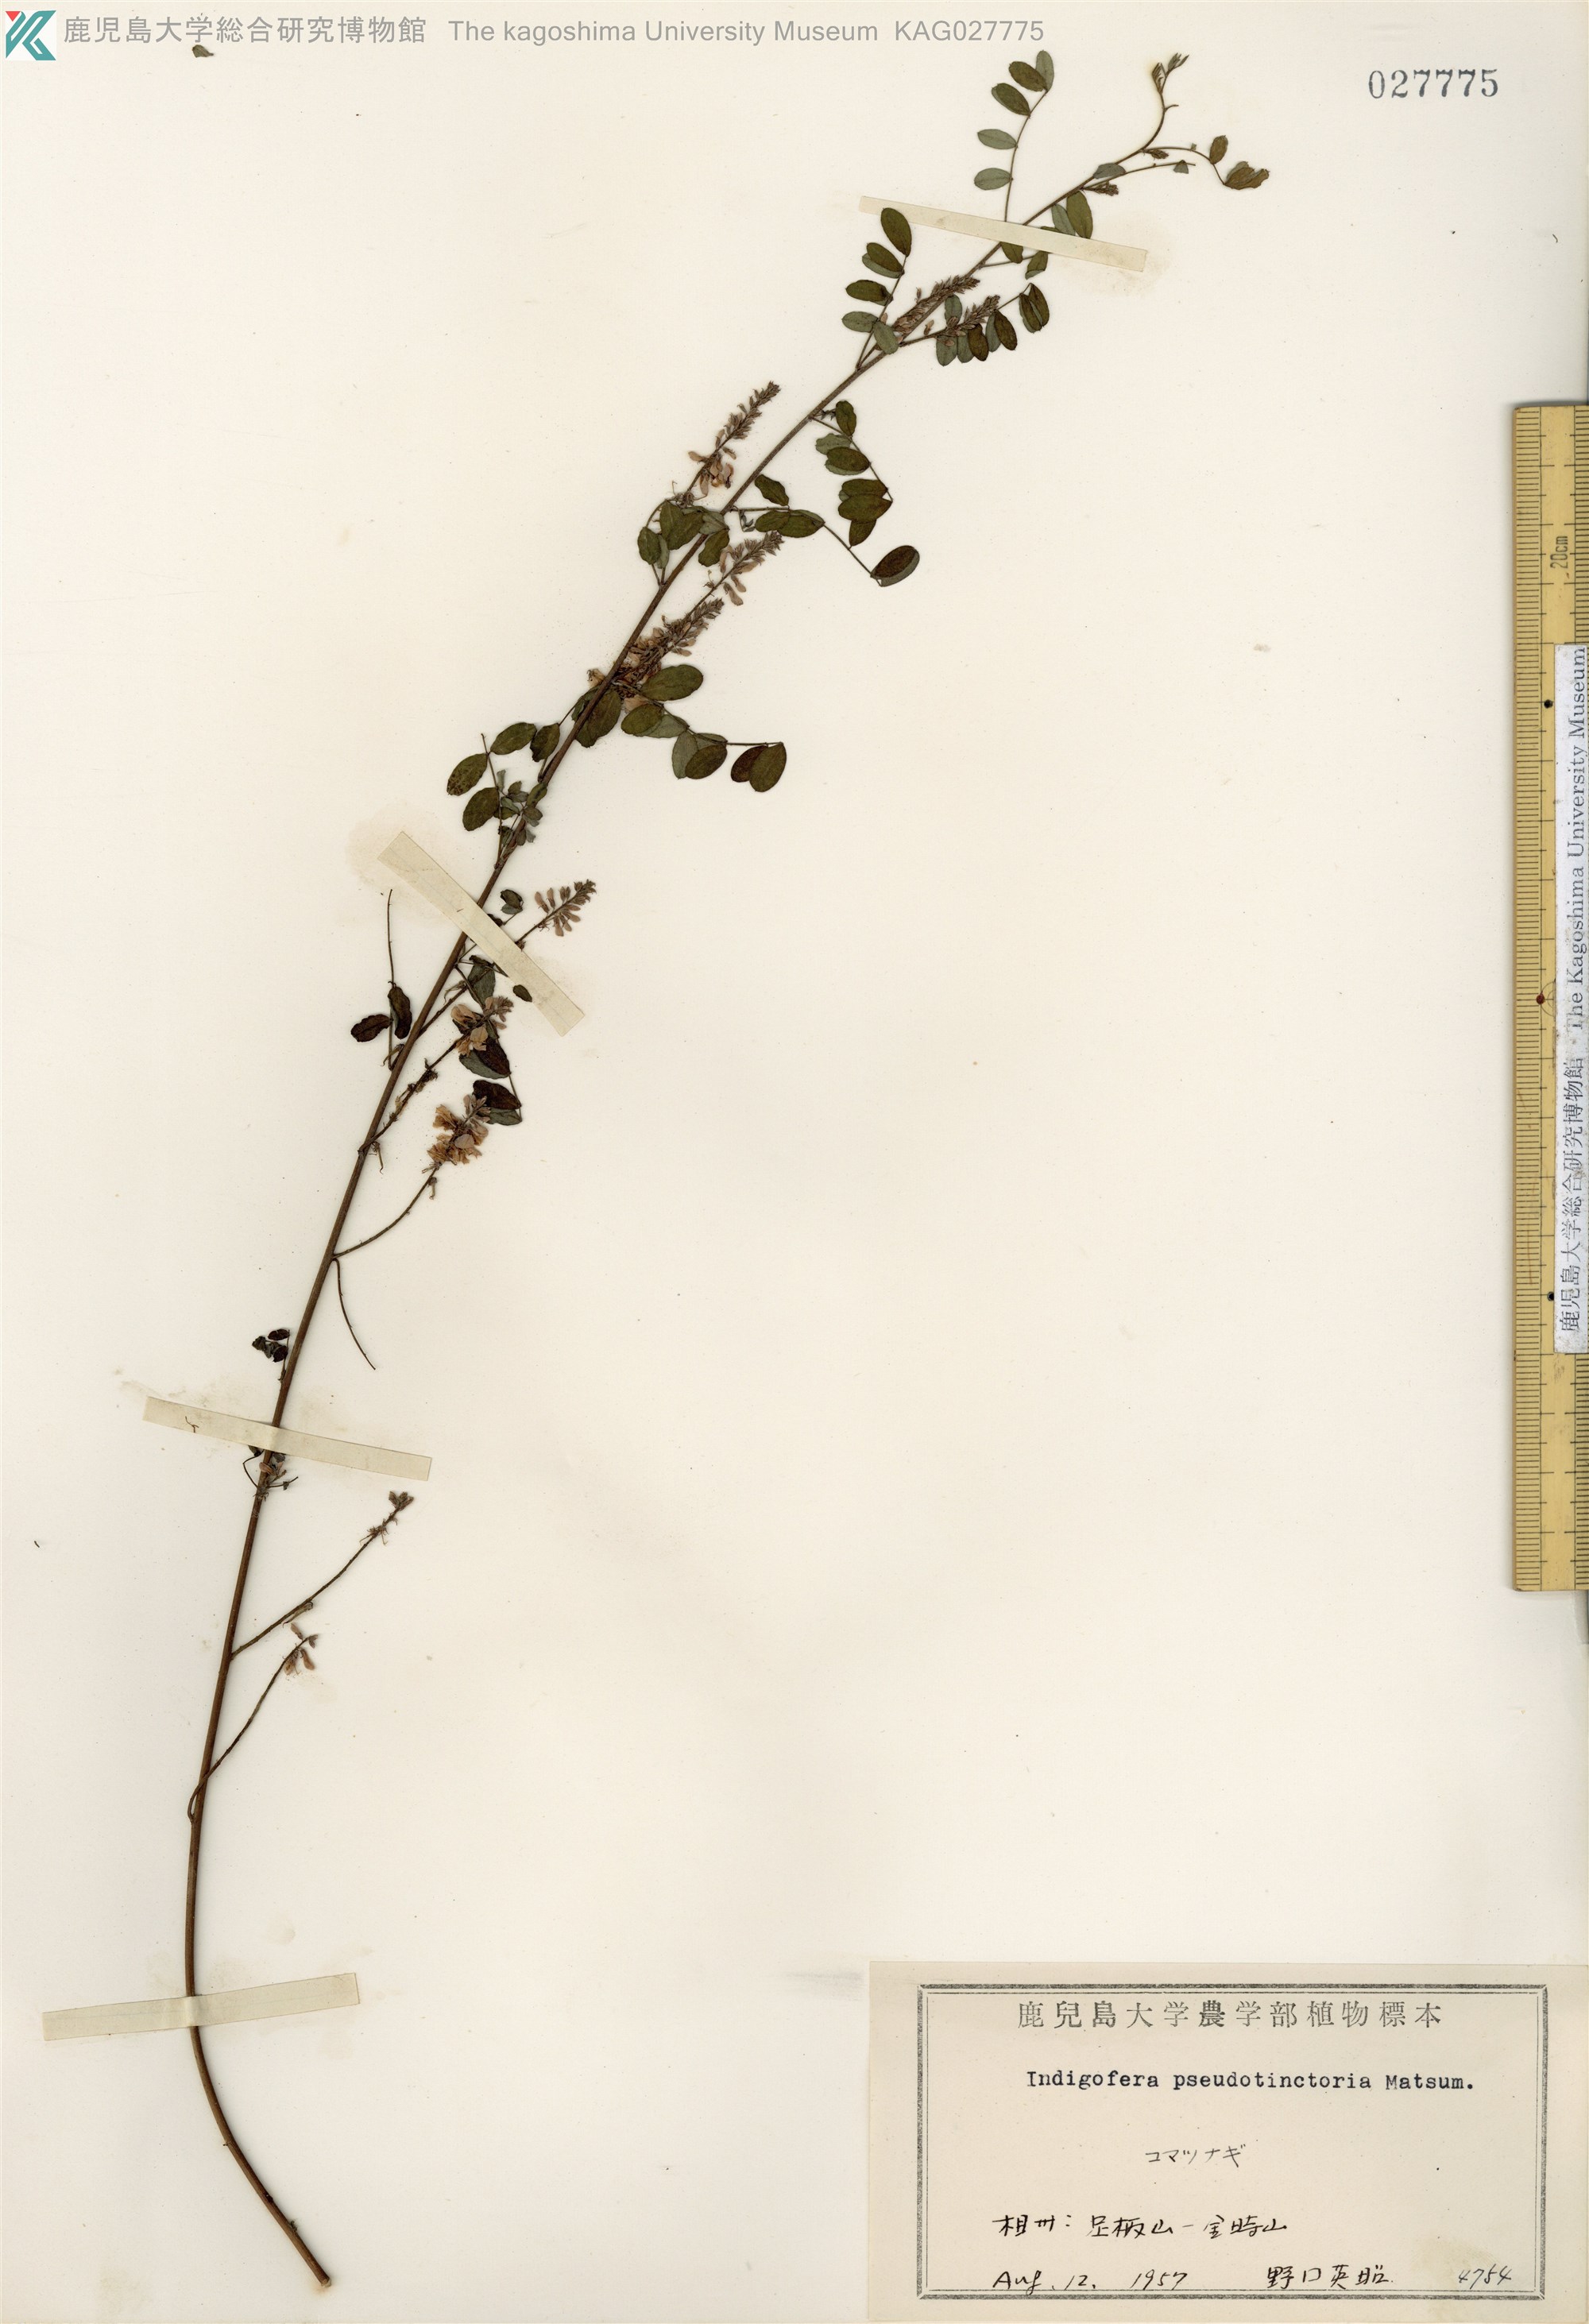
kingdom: Plantae
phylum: Tracheophyta
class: Magnoliopsida
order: Fabales
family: Fabaceae
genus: Indigofera
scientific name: Indigofera bungeana
